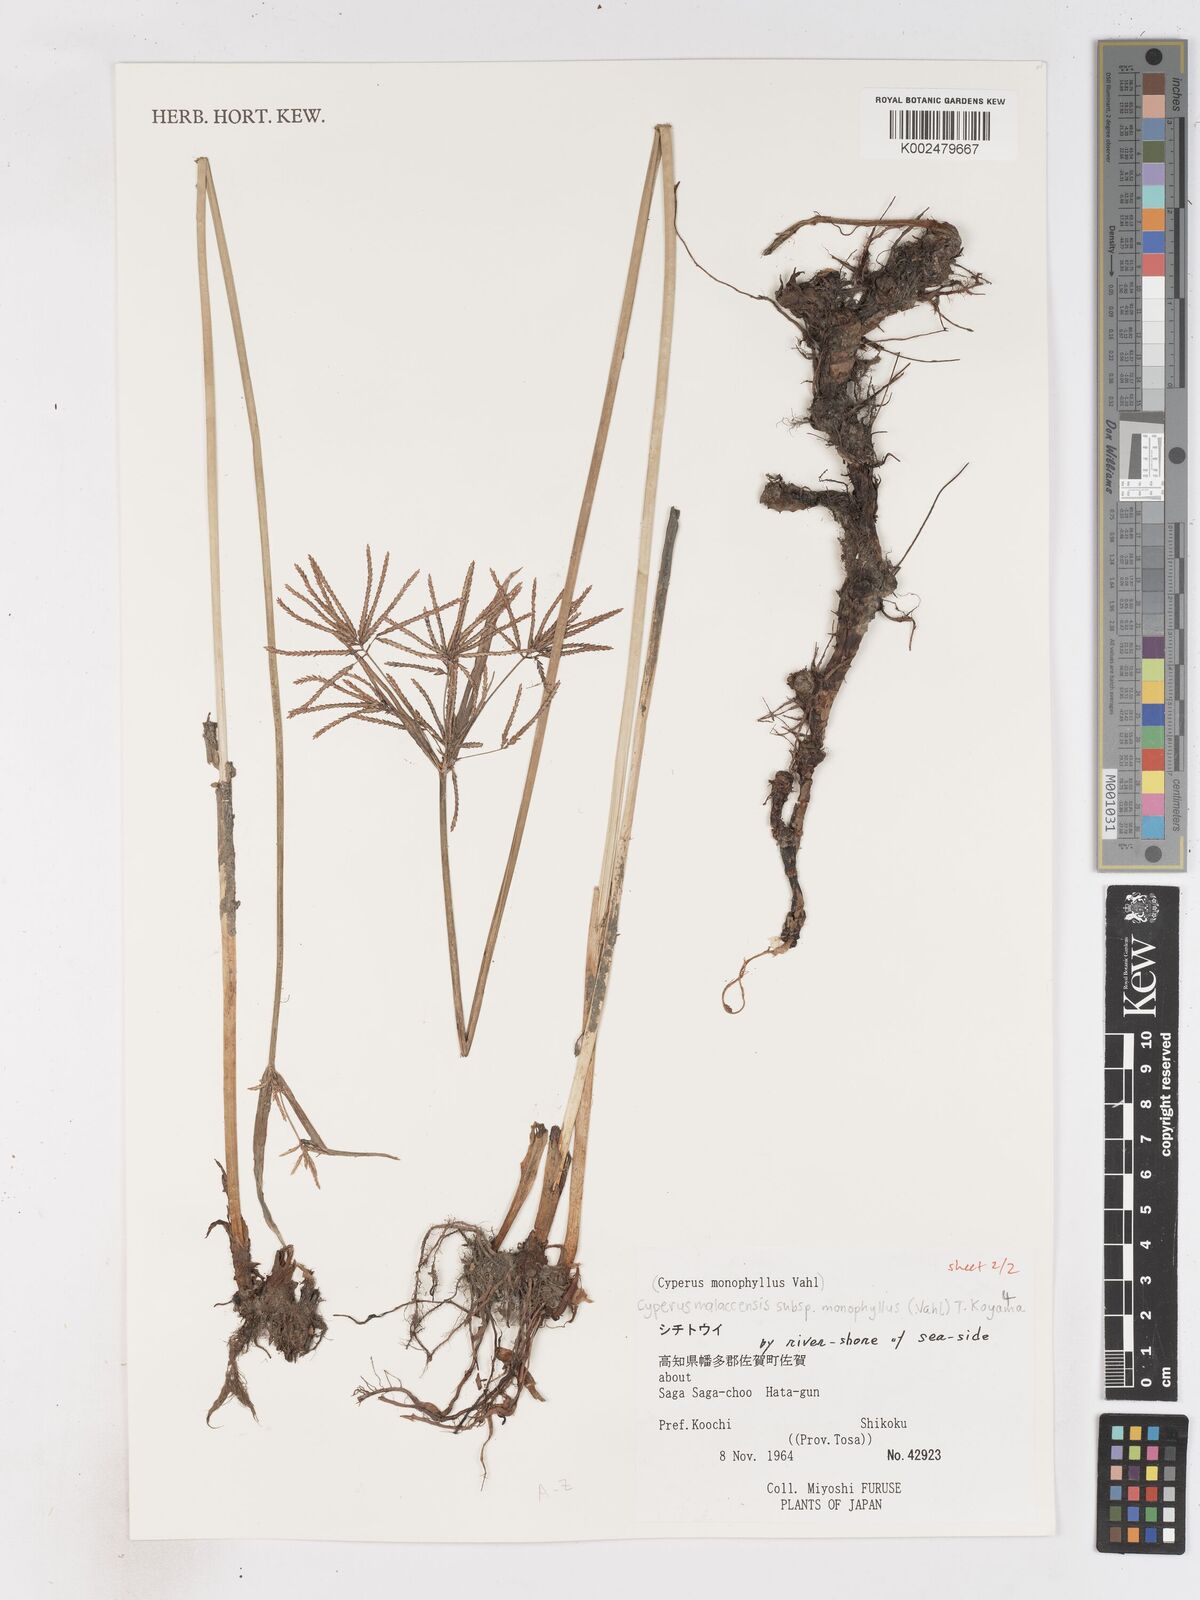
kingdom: Plantae
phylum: Tracheophyta
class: Liliopsida
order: Poales
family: Cyperaceae
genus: Cyperus
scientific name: Cyperus malaccensis
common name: Shichito matgrass
